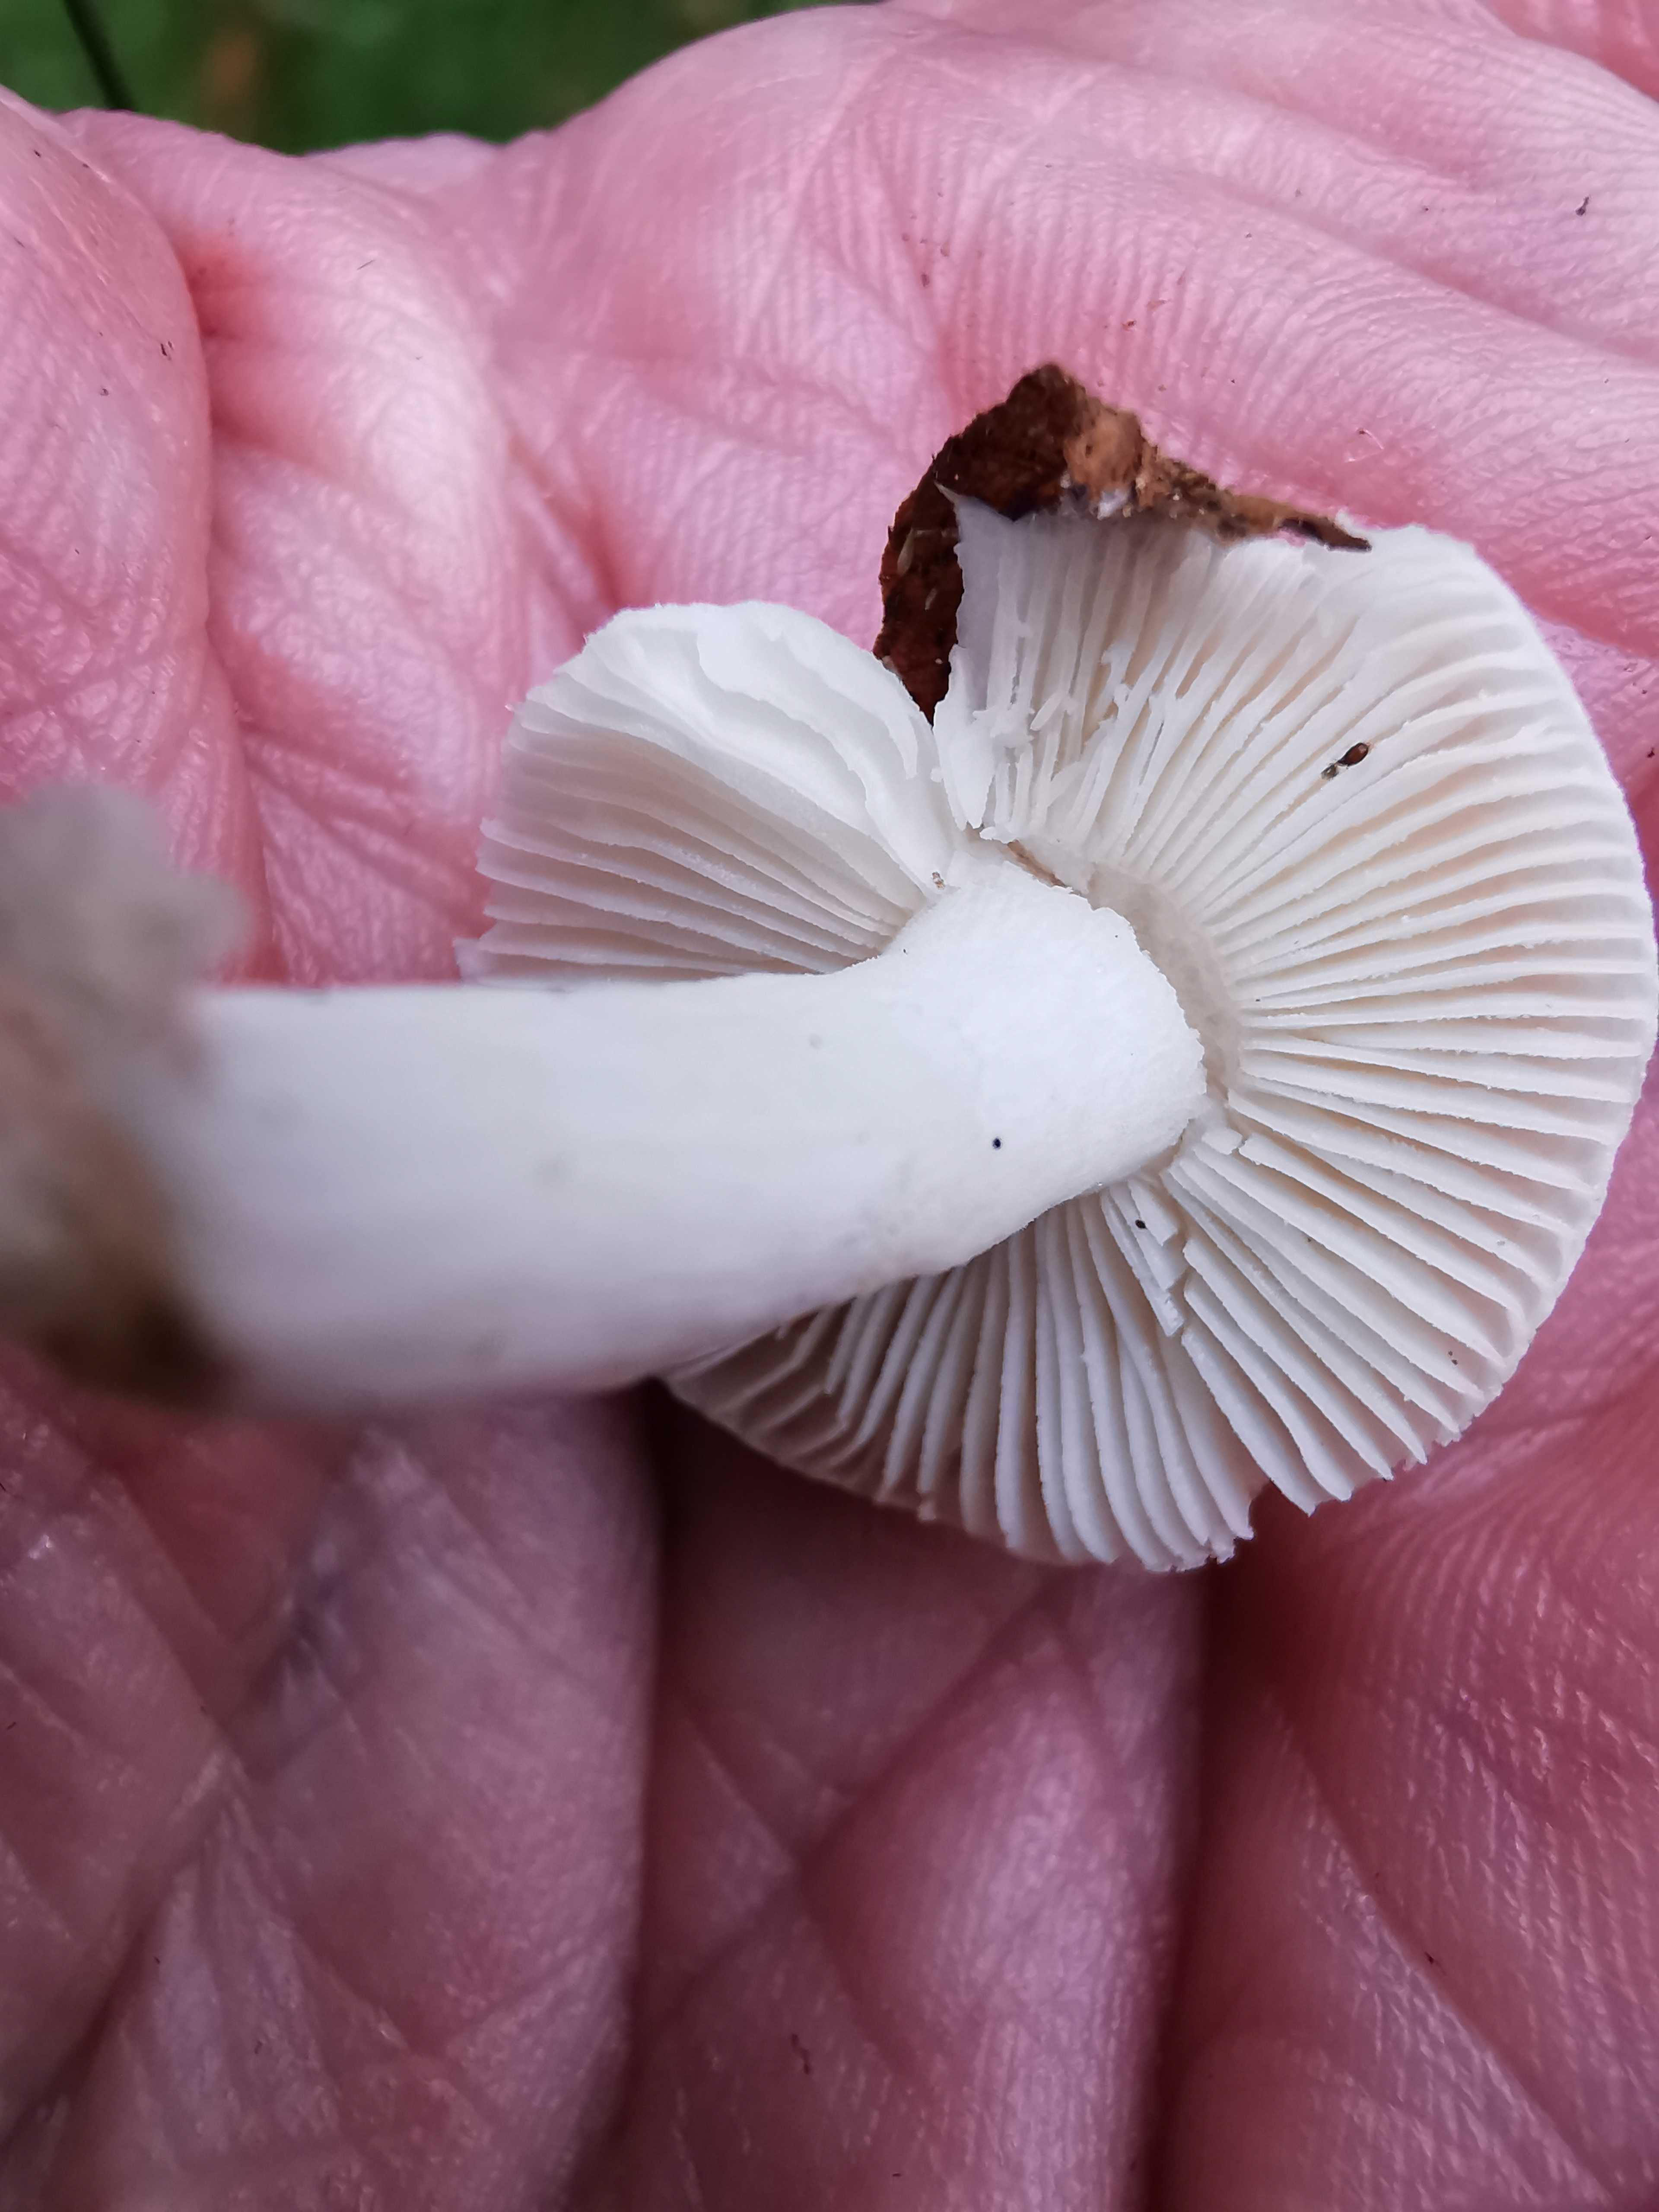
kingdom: Fungi
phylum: Basidiomycota
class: Agaricomycetes
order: Russulales
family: Russulaceae
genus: Russula
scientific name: Russula betularum
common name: bleg gift-skørhat
